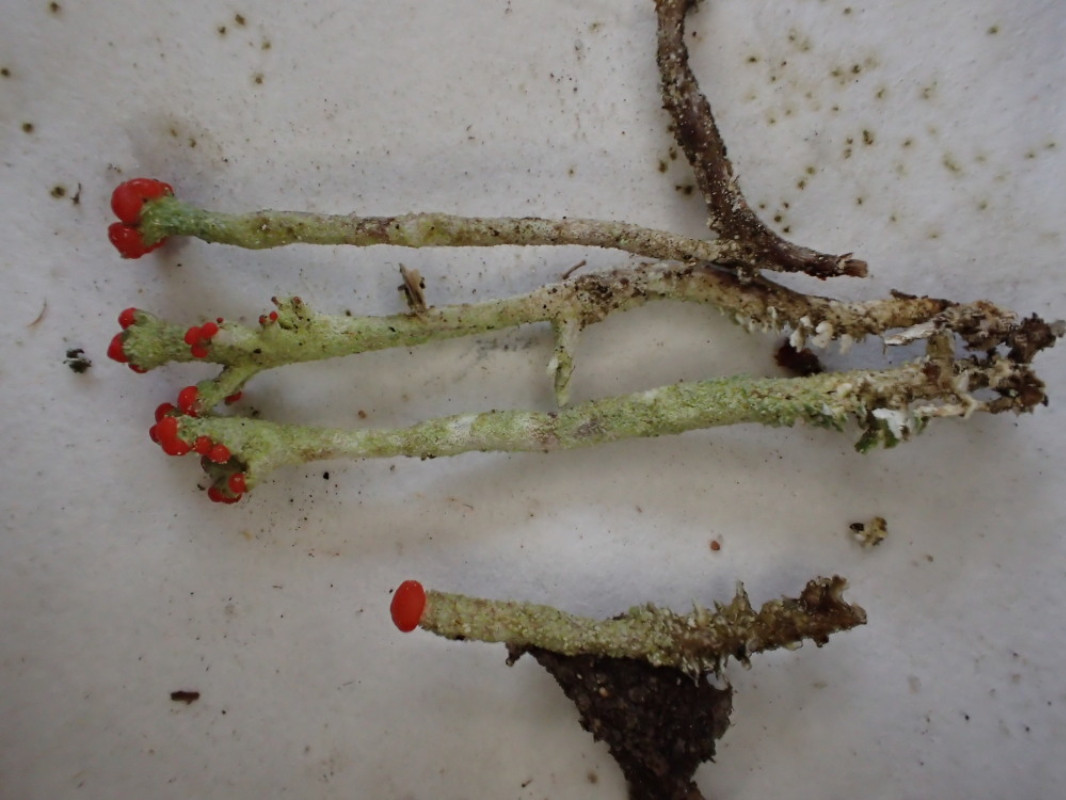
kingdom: Fungi
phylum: Ascomycota
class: Lecanoromycetes
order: Lecanorales
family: Cladoniaceae
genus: Cladonia
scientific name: Cladonia floerkeana
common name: lakrød bægerlav
